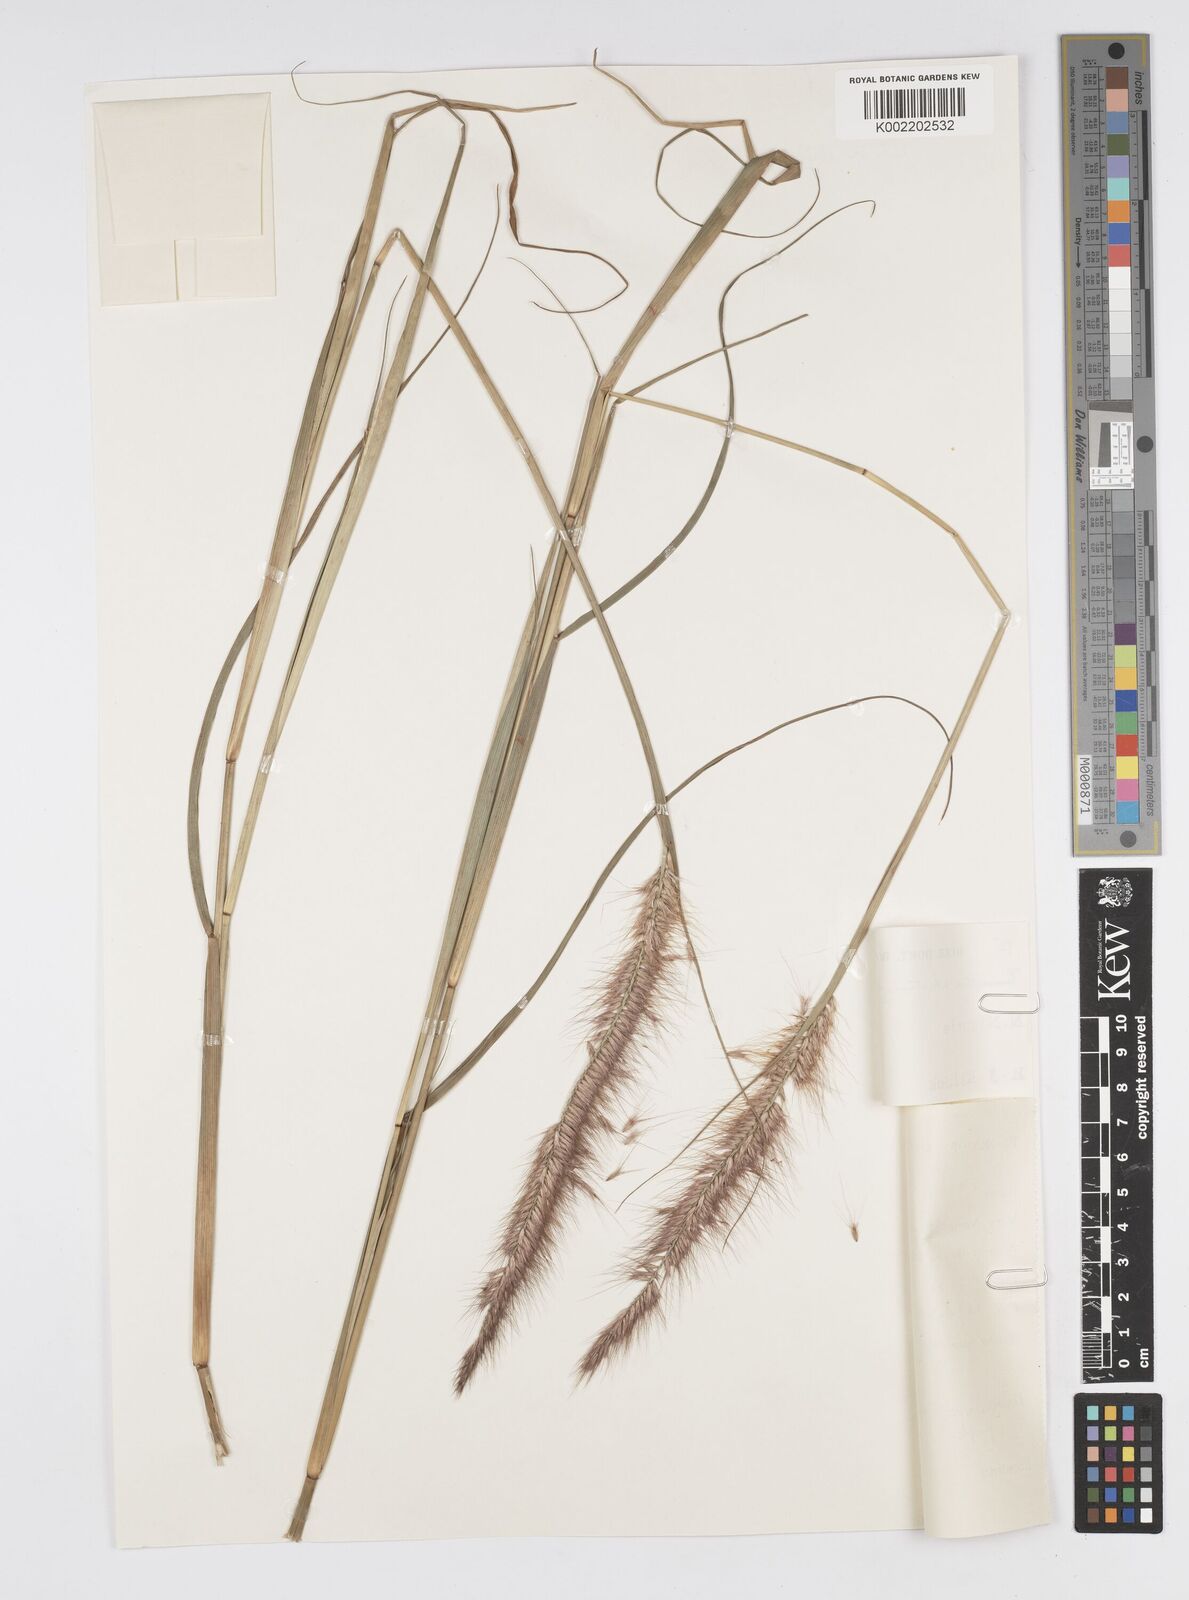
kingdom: Plantae
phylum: Tracheophyta
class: Liliopsida
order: Poales
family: Poaceae
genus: Setaria
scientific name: Setaria parviflora
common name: Knotroot bristle-grass
